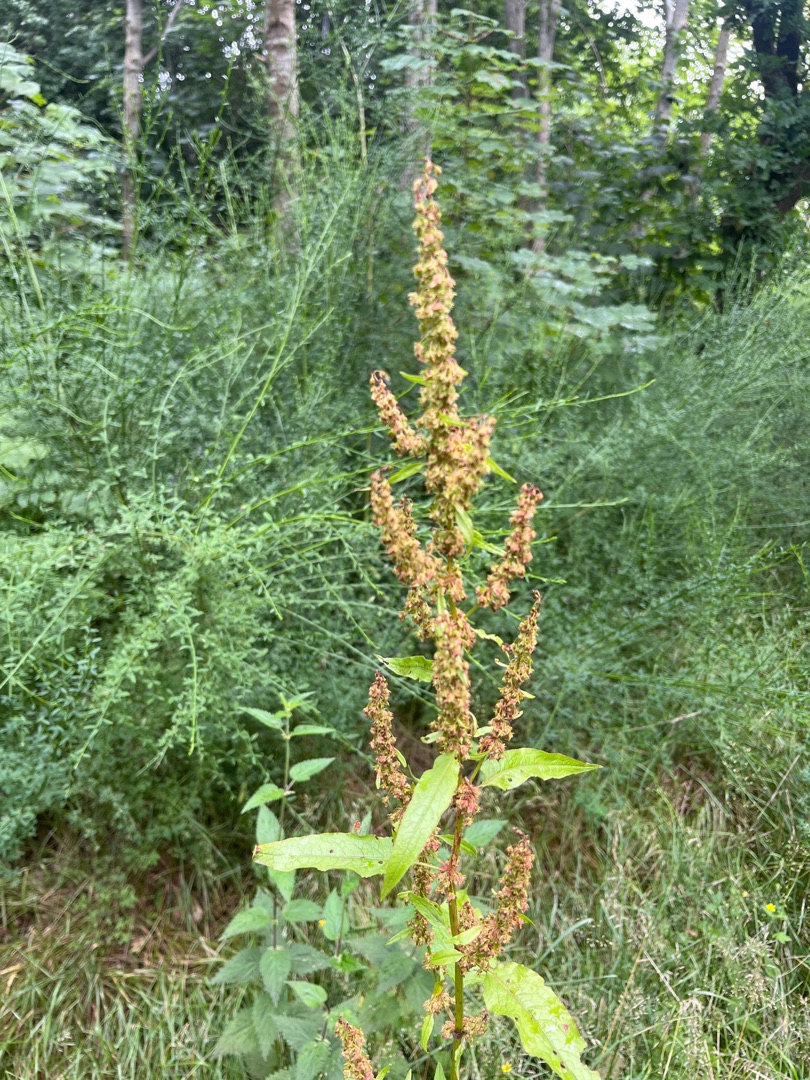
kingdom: Plantae
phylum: Tracheophyta
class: Magnoliopsida
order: Caryophyllales
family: Polygonaceae
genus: Rumex
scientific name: Rumex obtusifolius
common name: Butbladet skræppe
